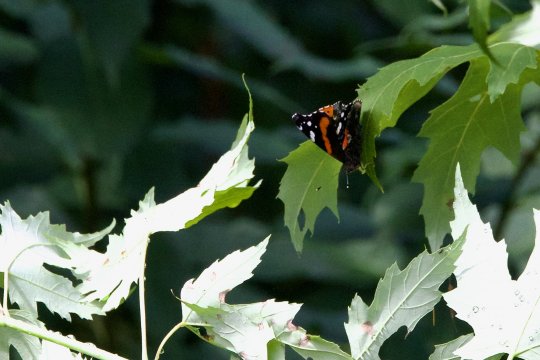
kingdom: Animalia
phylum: Arthropoda
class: Insecta
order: Lepidoptera
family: Nymphalidae
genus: Vanessa
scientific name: Vanessa atalanta
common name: Red Admiral
